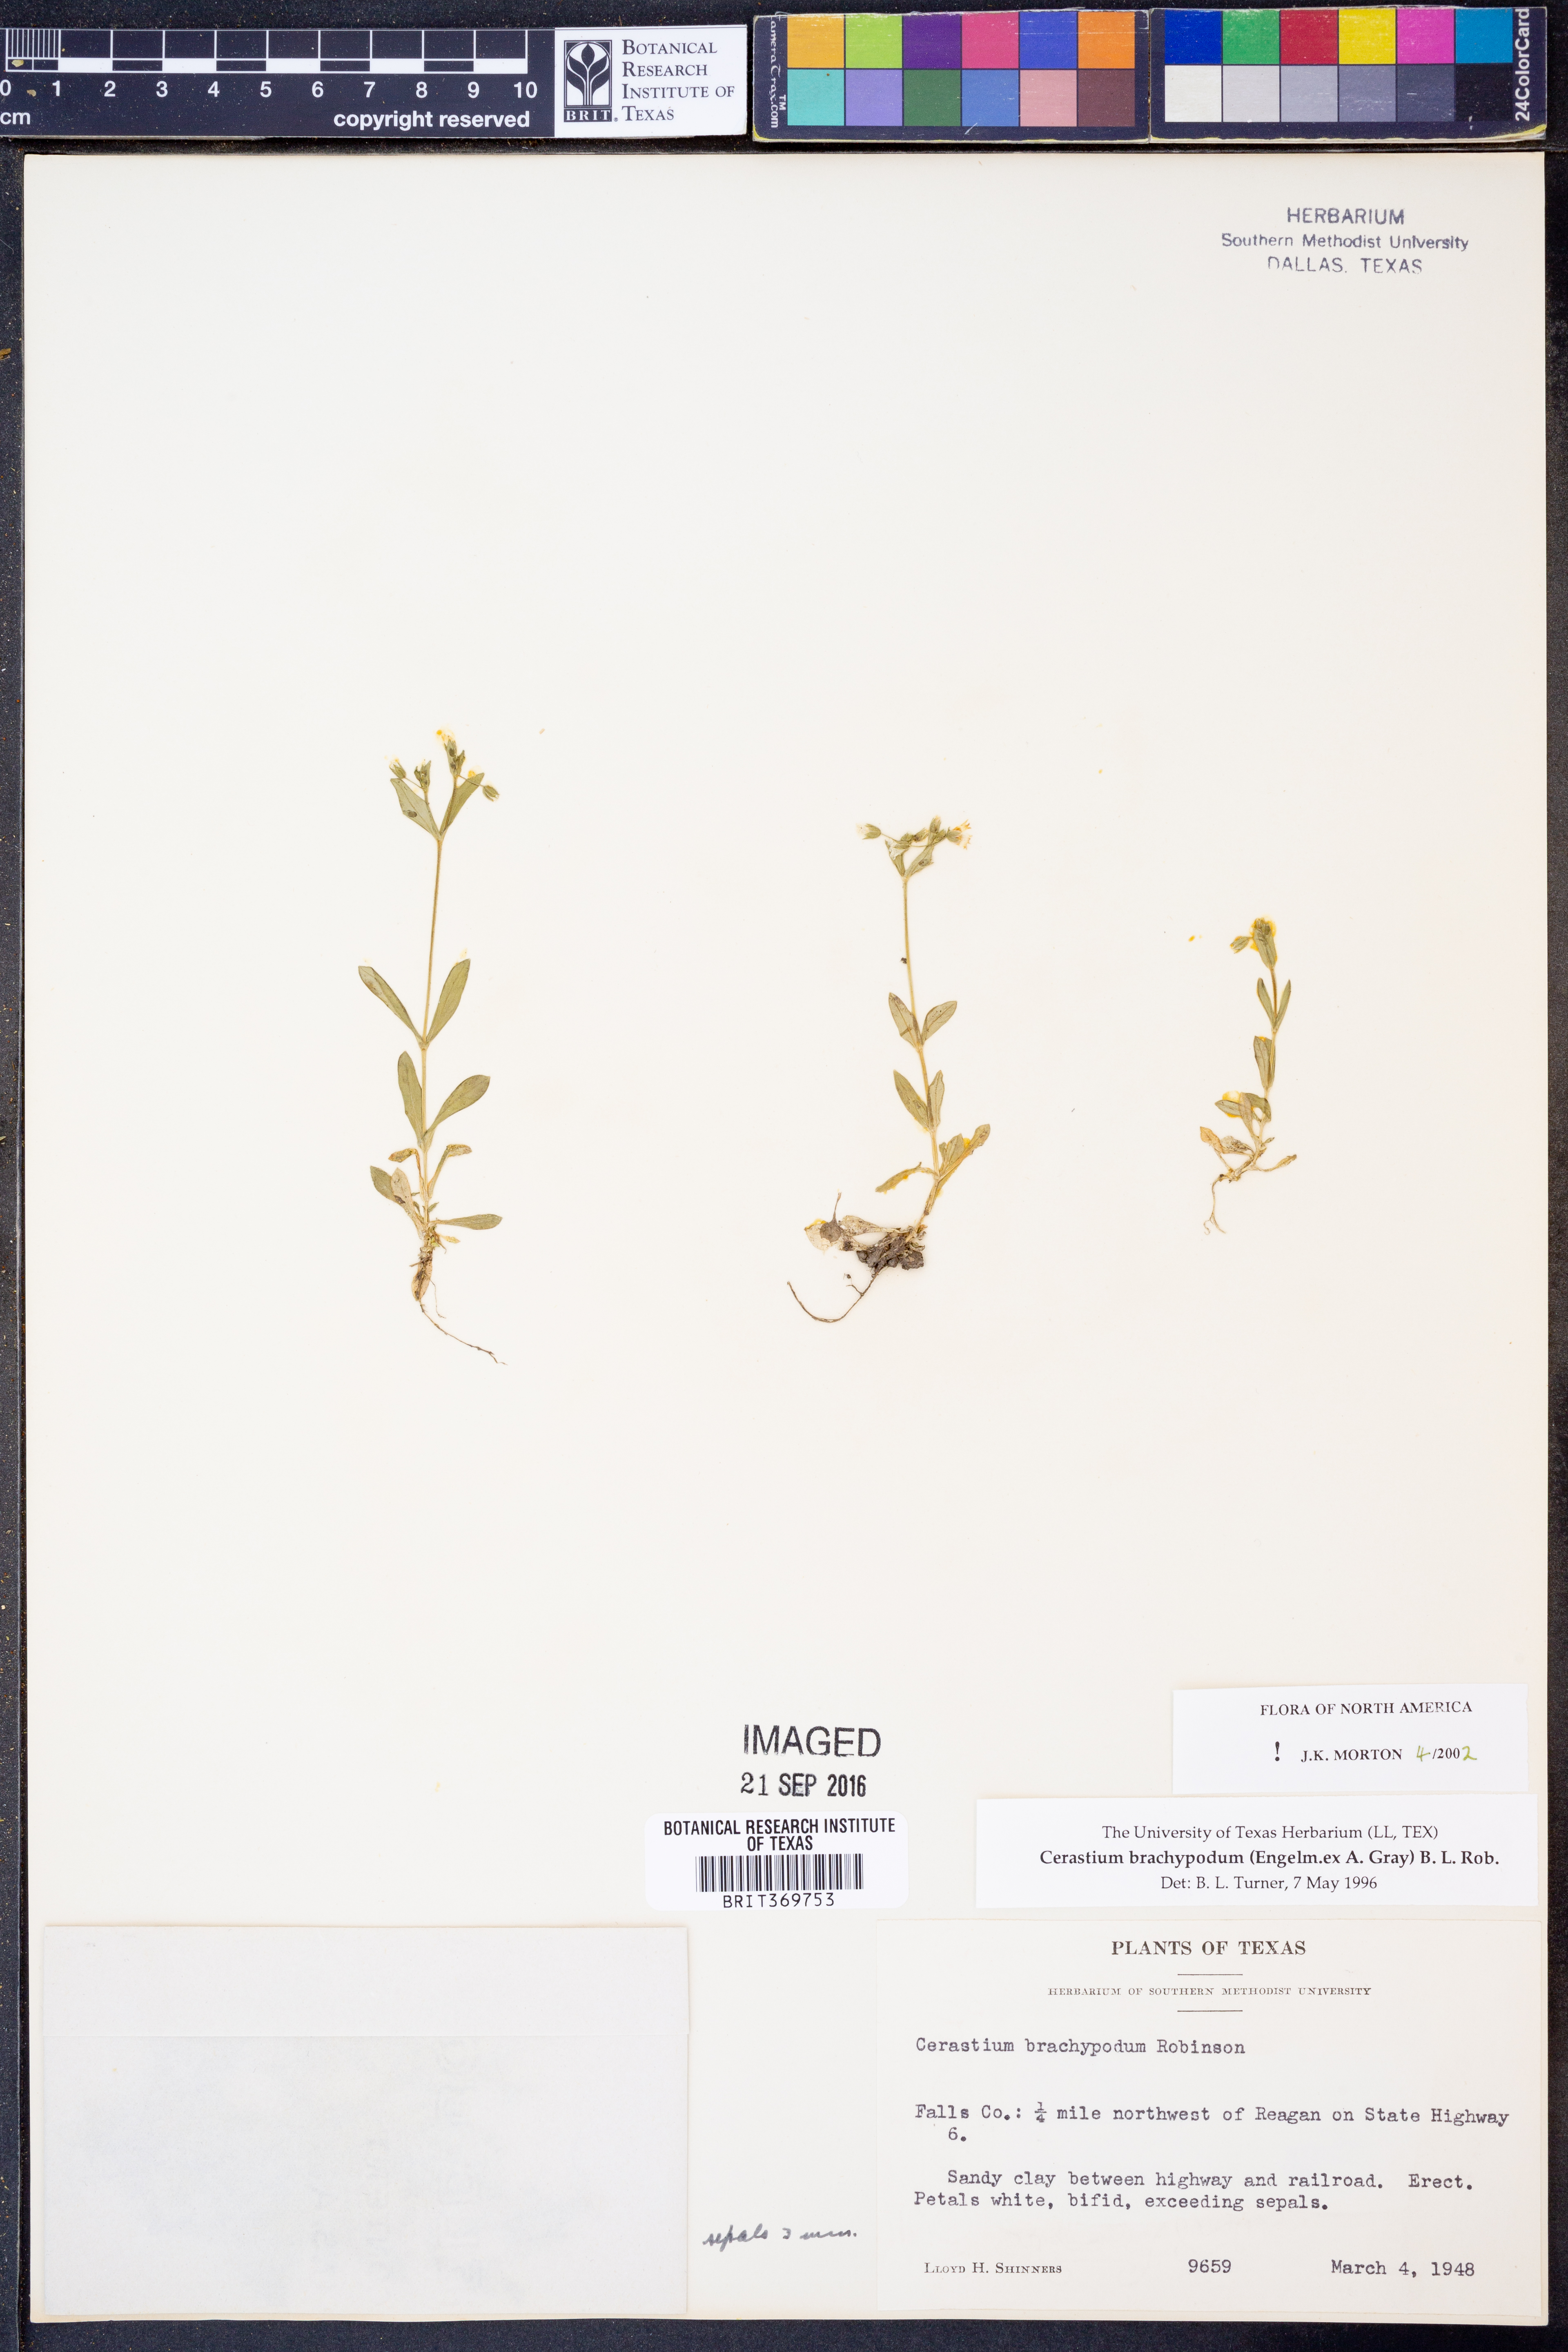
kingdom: Plantae
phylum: Tracheophyta
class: Magnoliopsida
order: Caryophyllales
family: Caryophyllaceae
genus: Cerastium
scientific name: Cerastium brachypodum
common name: Short-pedicelled nodding chickweed
